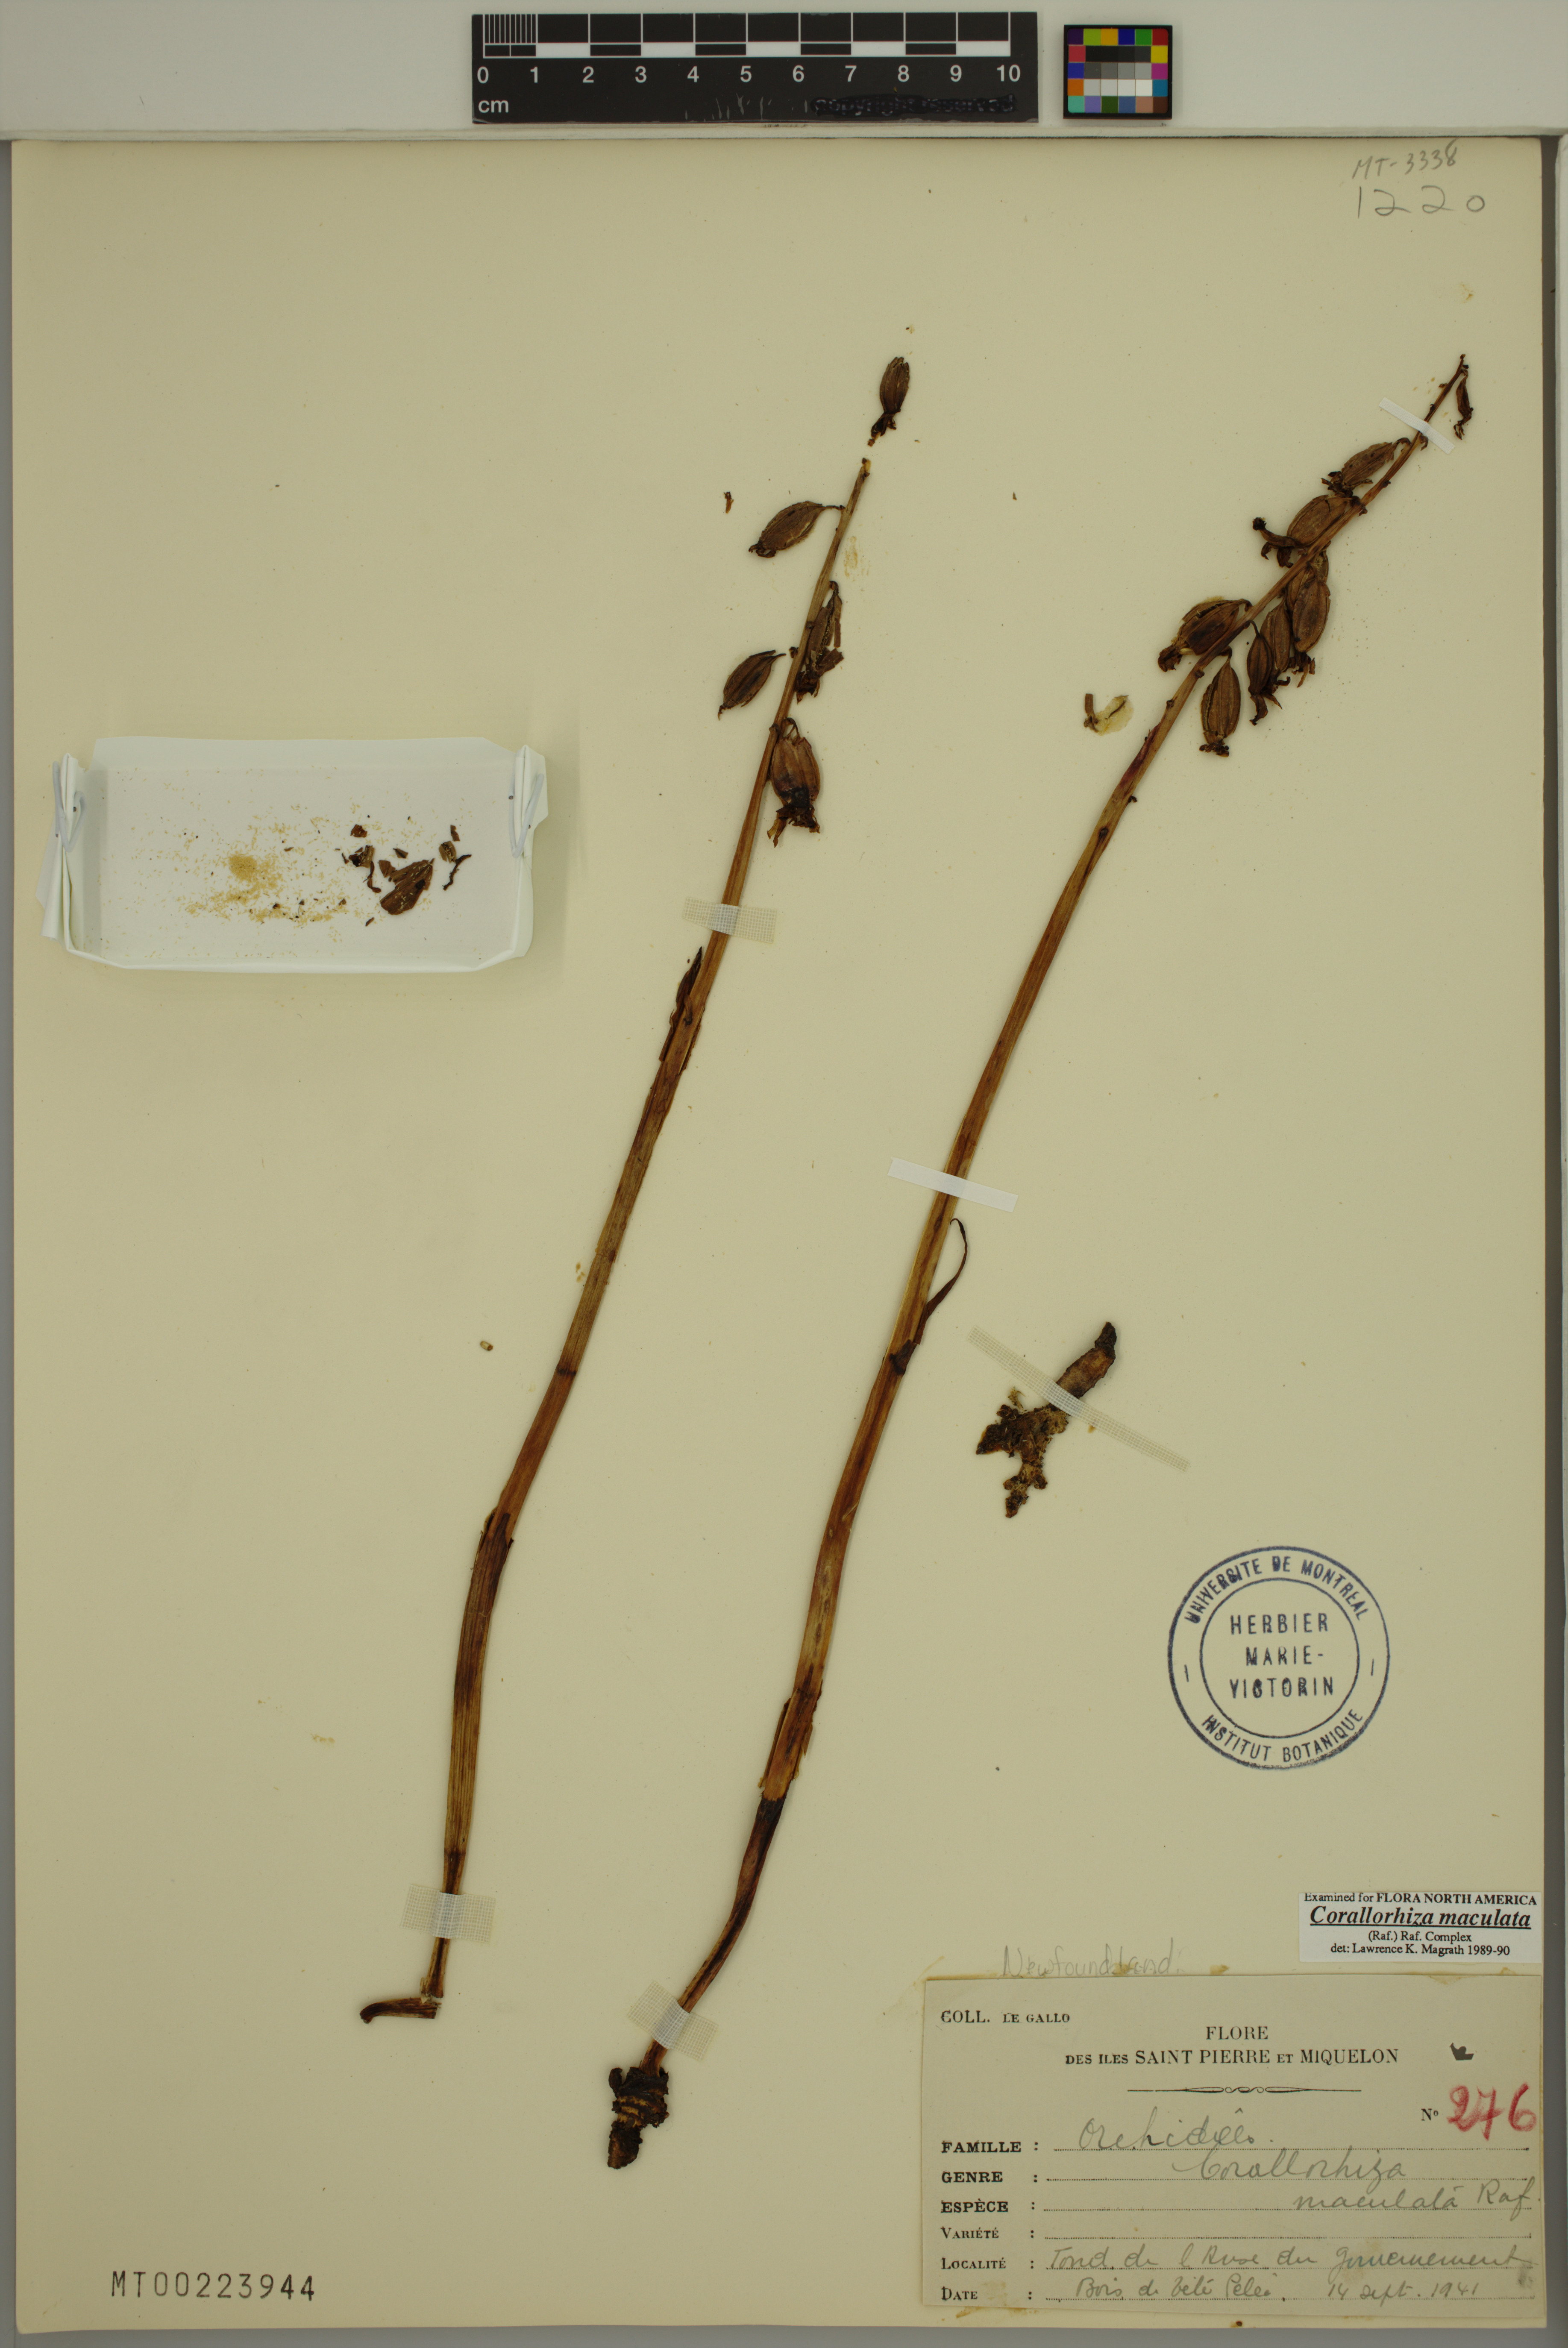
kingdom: Plantae
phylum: Tracheophyta
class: Liliopsida
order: Asparagales
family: Orchidaceae
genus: Corallorhiza
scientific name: Corallorhiza maculata
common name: Spotted coralroot
